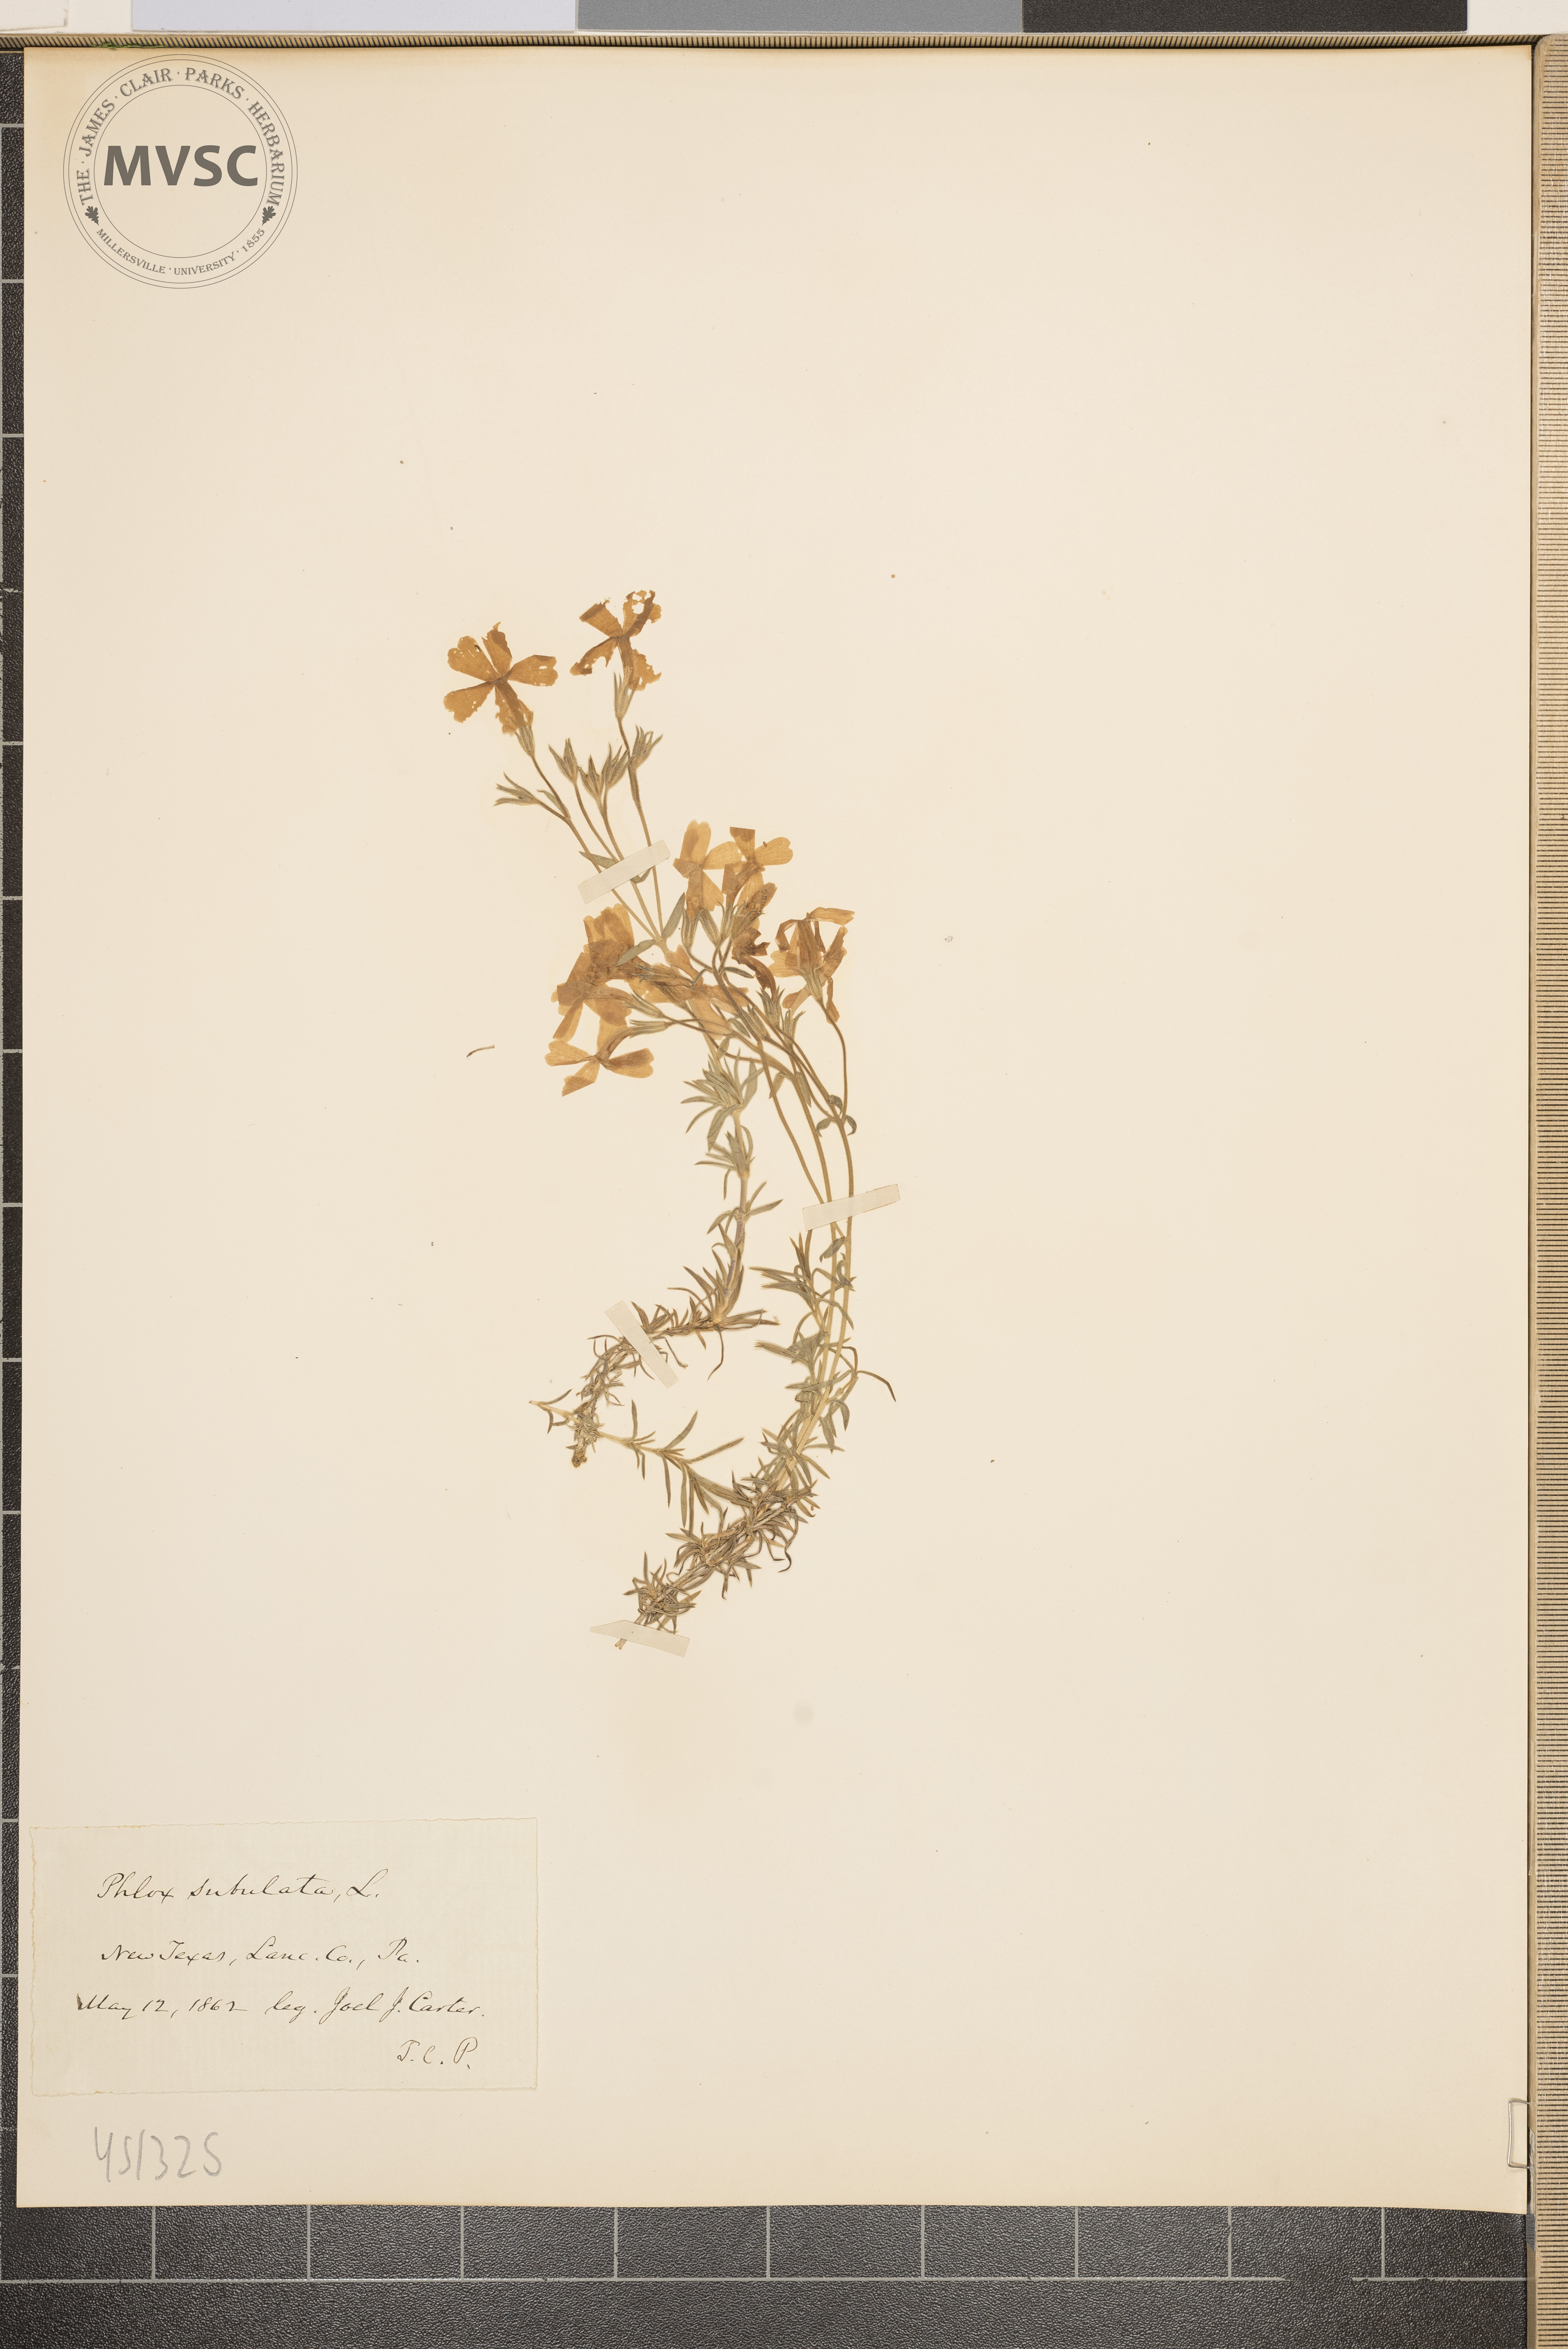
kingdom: Plantae
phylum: Tracheophyta
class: Magnoliopsida
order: Ericales
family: Polemoniaceae
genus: Phlox
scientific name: Phlox subulata
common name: Moss phlox
